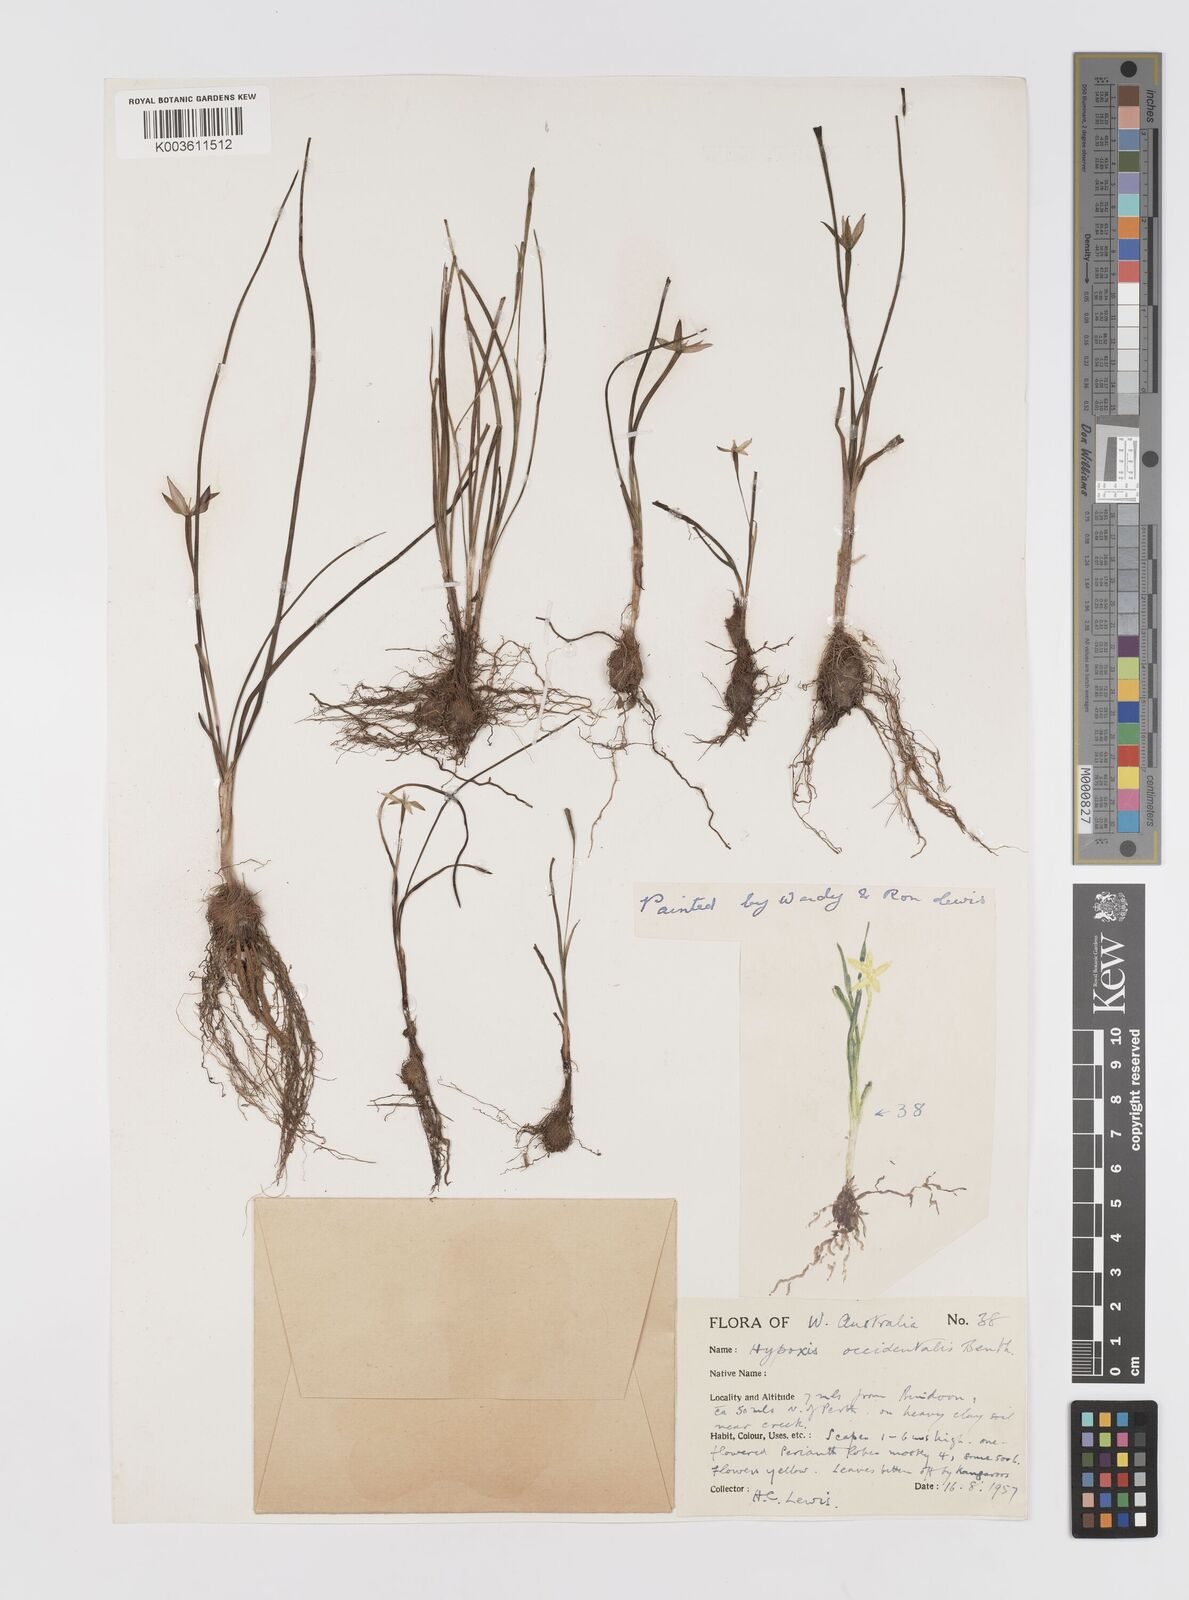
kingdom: Plantae
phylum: Tracheophyta
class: Liliopsida
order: Asparagales
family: Hypoxidaceae
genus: Pauridia
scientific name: Pauridia occidentalis
